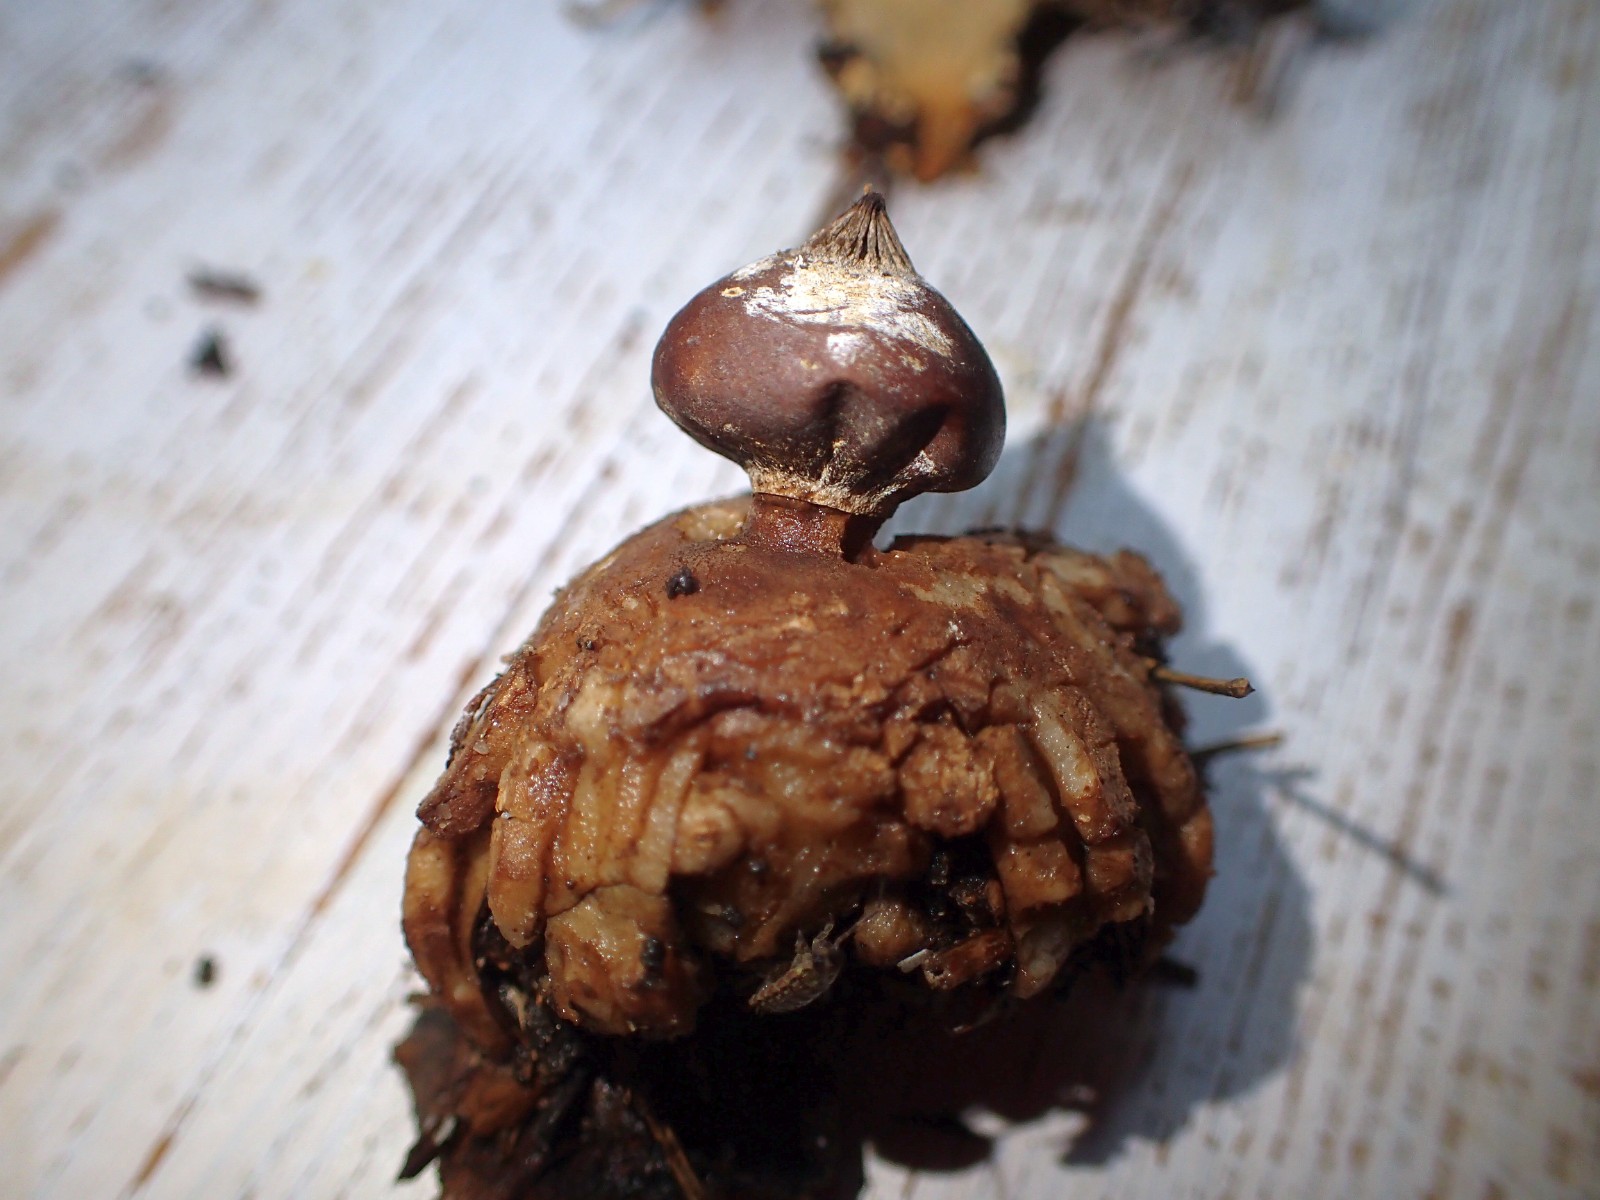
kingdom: Fungi
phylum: Basidiomycota
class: Agaricomycetes
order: Geastrales
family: Geastraceae
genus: Geastrum
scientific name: Geastrum striatum
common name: krave-stjernebold
